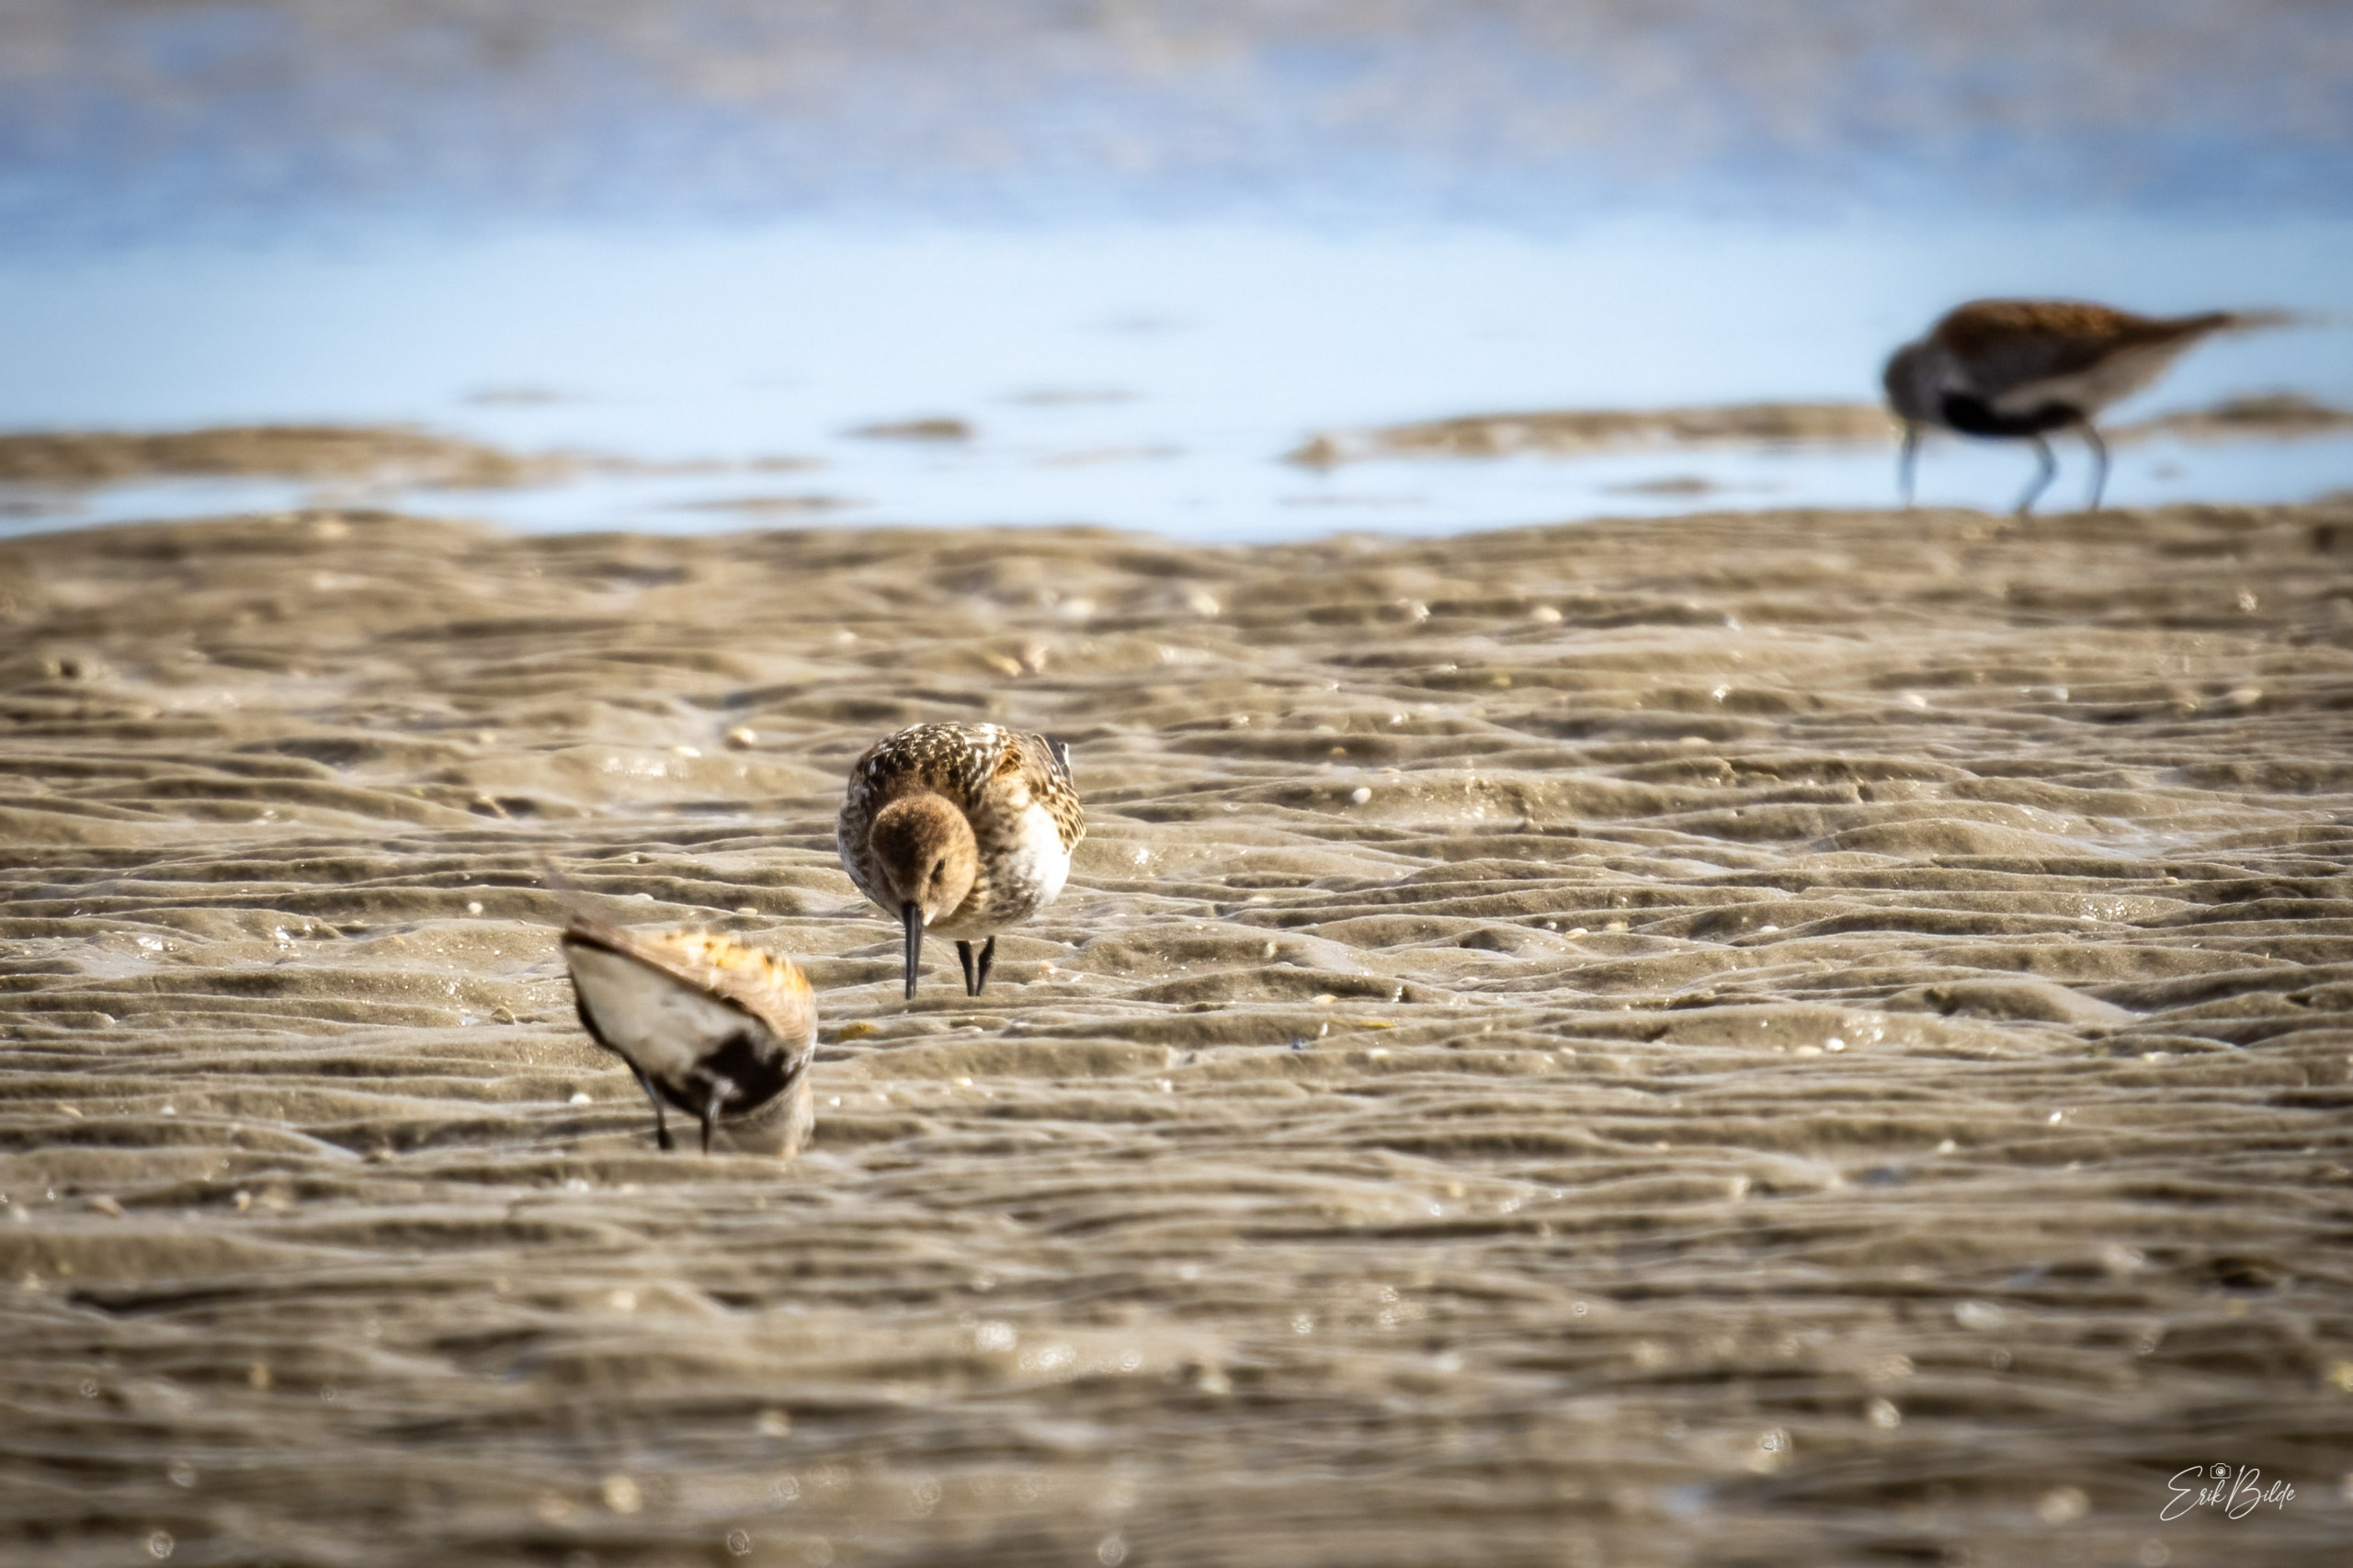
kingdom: Animalia
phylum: Chordata
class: Aves
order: Charadriiformes
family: Scolopacidae
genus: Calidris
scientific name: Calidris alpina
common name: Almindelig ryle
